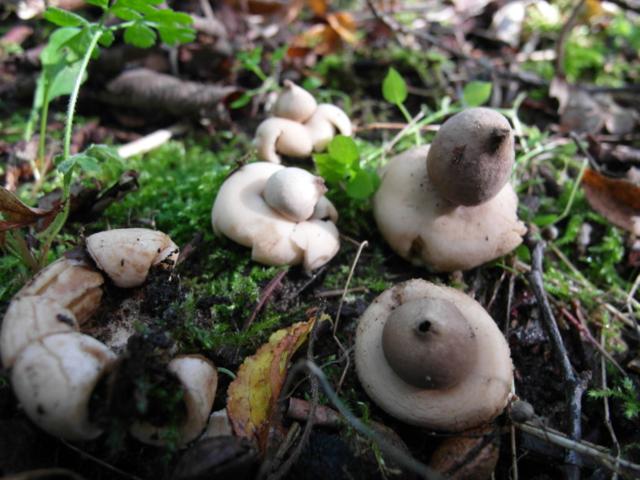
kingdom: Fungi
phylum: Basidiomycota
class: Agaricomycetes
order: Geastrales
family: Geastraceae
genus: Geastrum
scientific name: Geastrum fimbriatum
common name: frynset stjernebold
